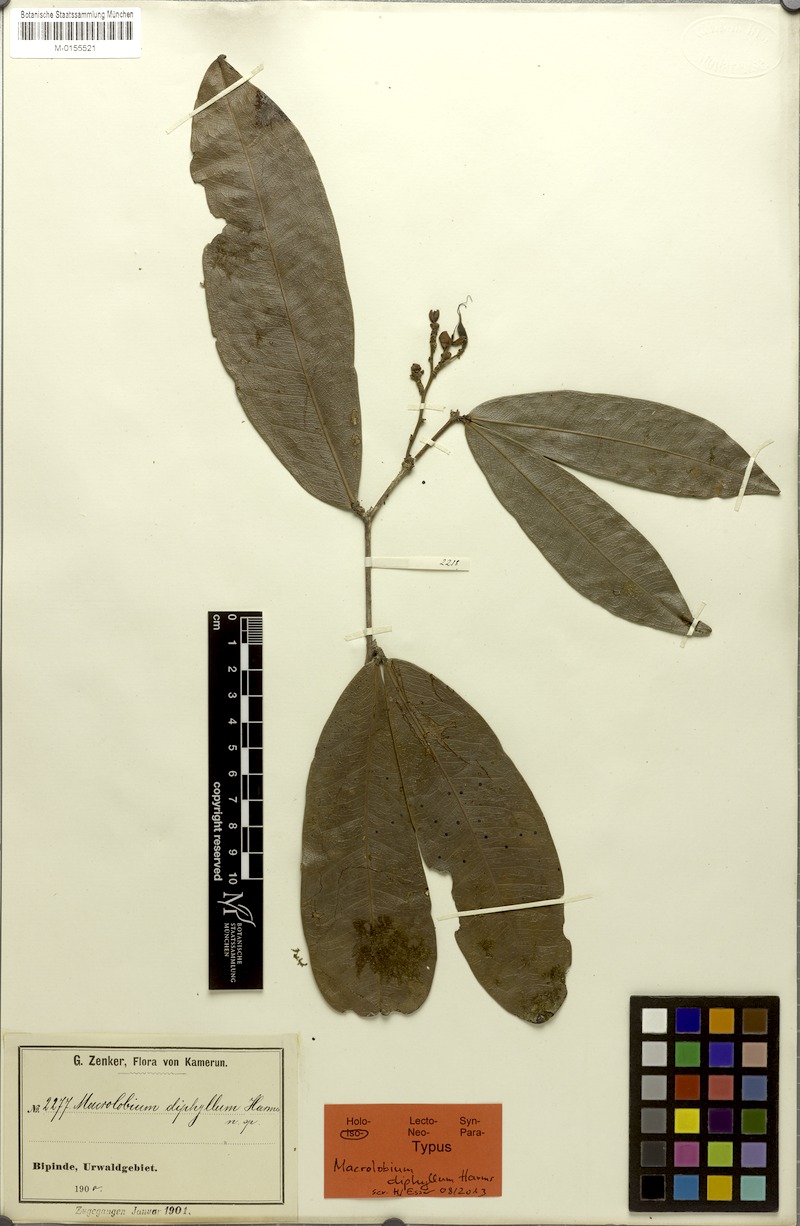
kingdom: Plantae
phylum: Tracheophyta
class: Magnoliopsida
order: Fabales
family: Fabaceae
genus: Gilbertiodendron
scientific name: Gilbertiodendron diphyllum
